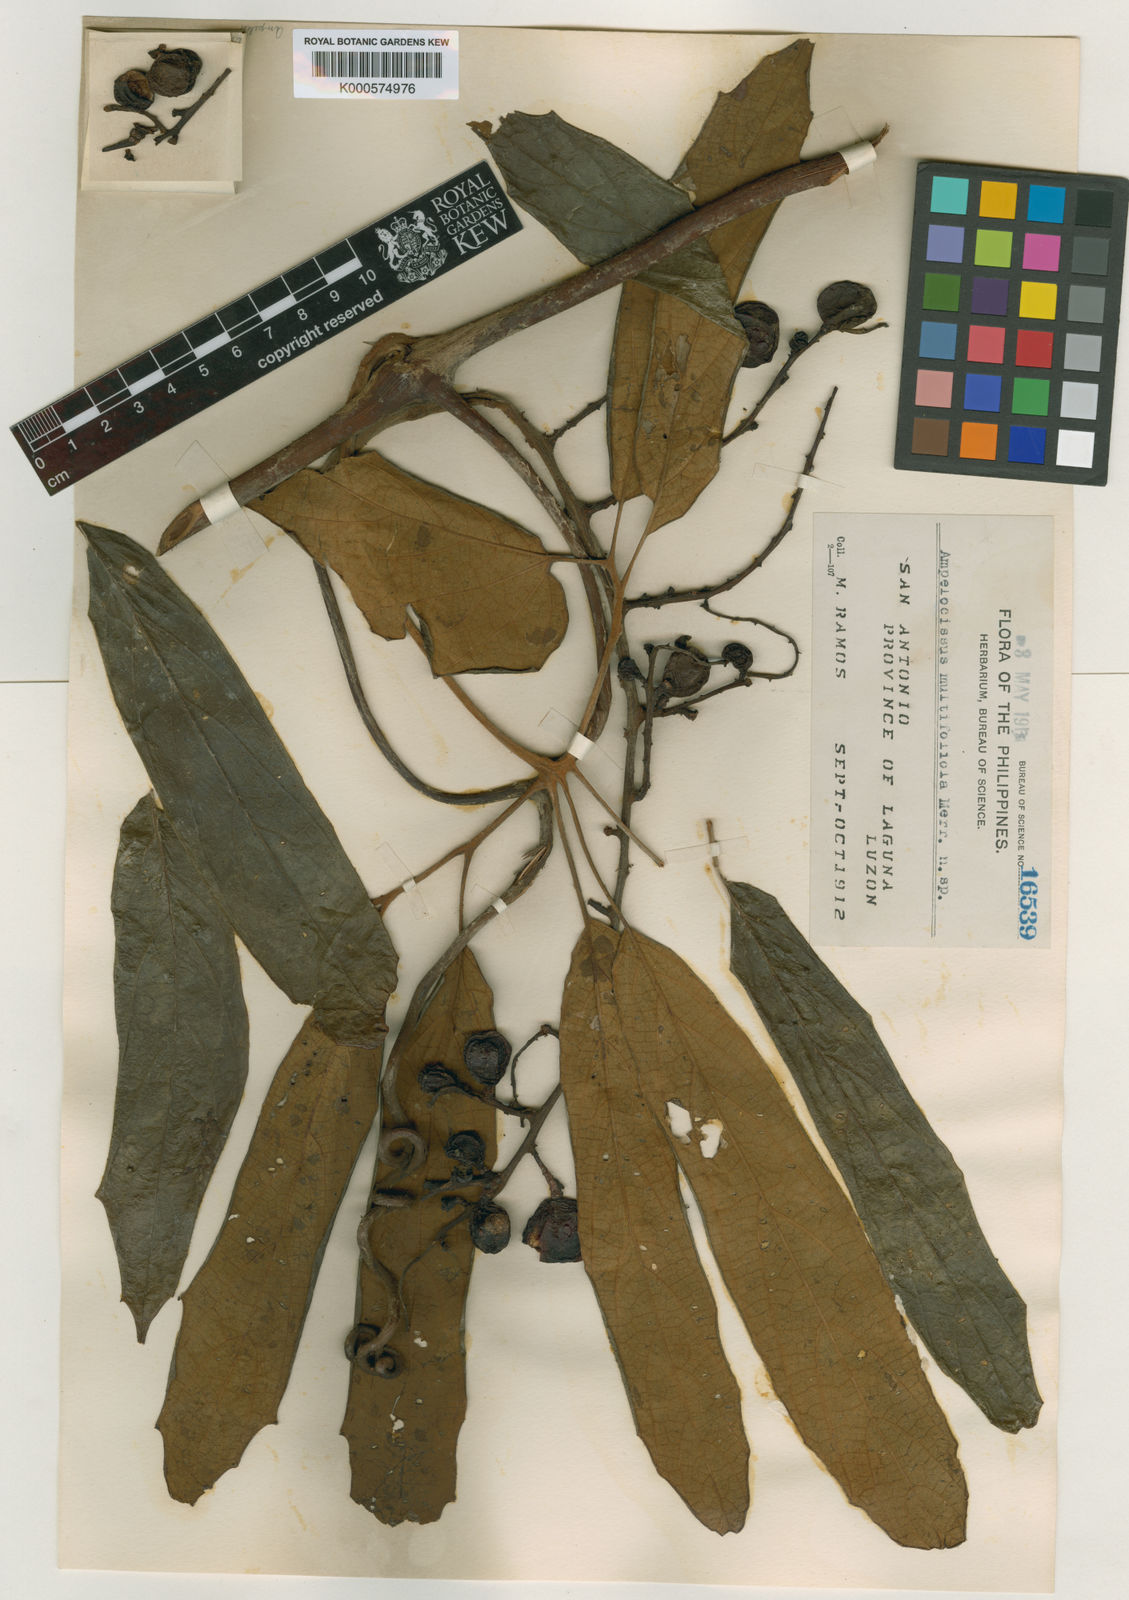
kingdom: Plantae
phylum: Tracheophyta
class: Magnoliopsida
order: Vitales
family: Vitaceae
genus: Ampelocissus
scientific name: Ampelocissus multifoliola
